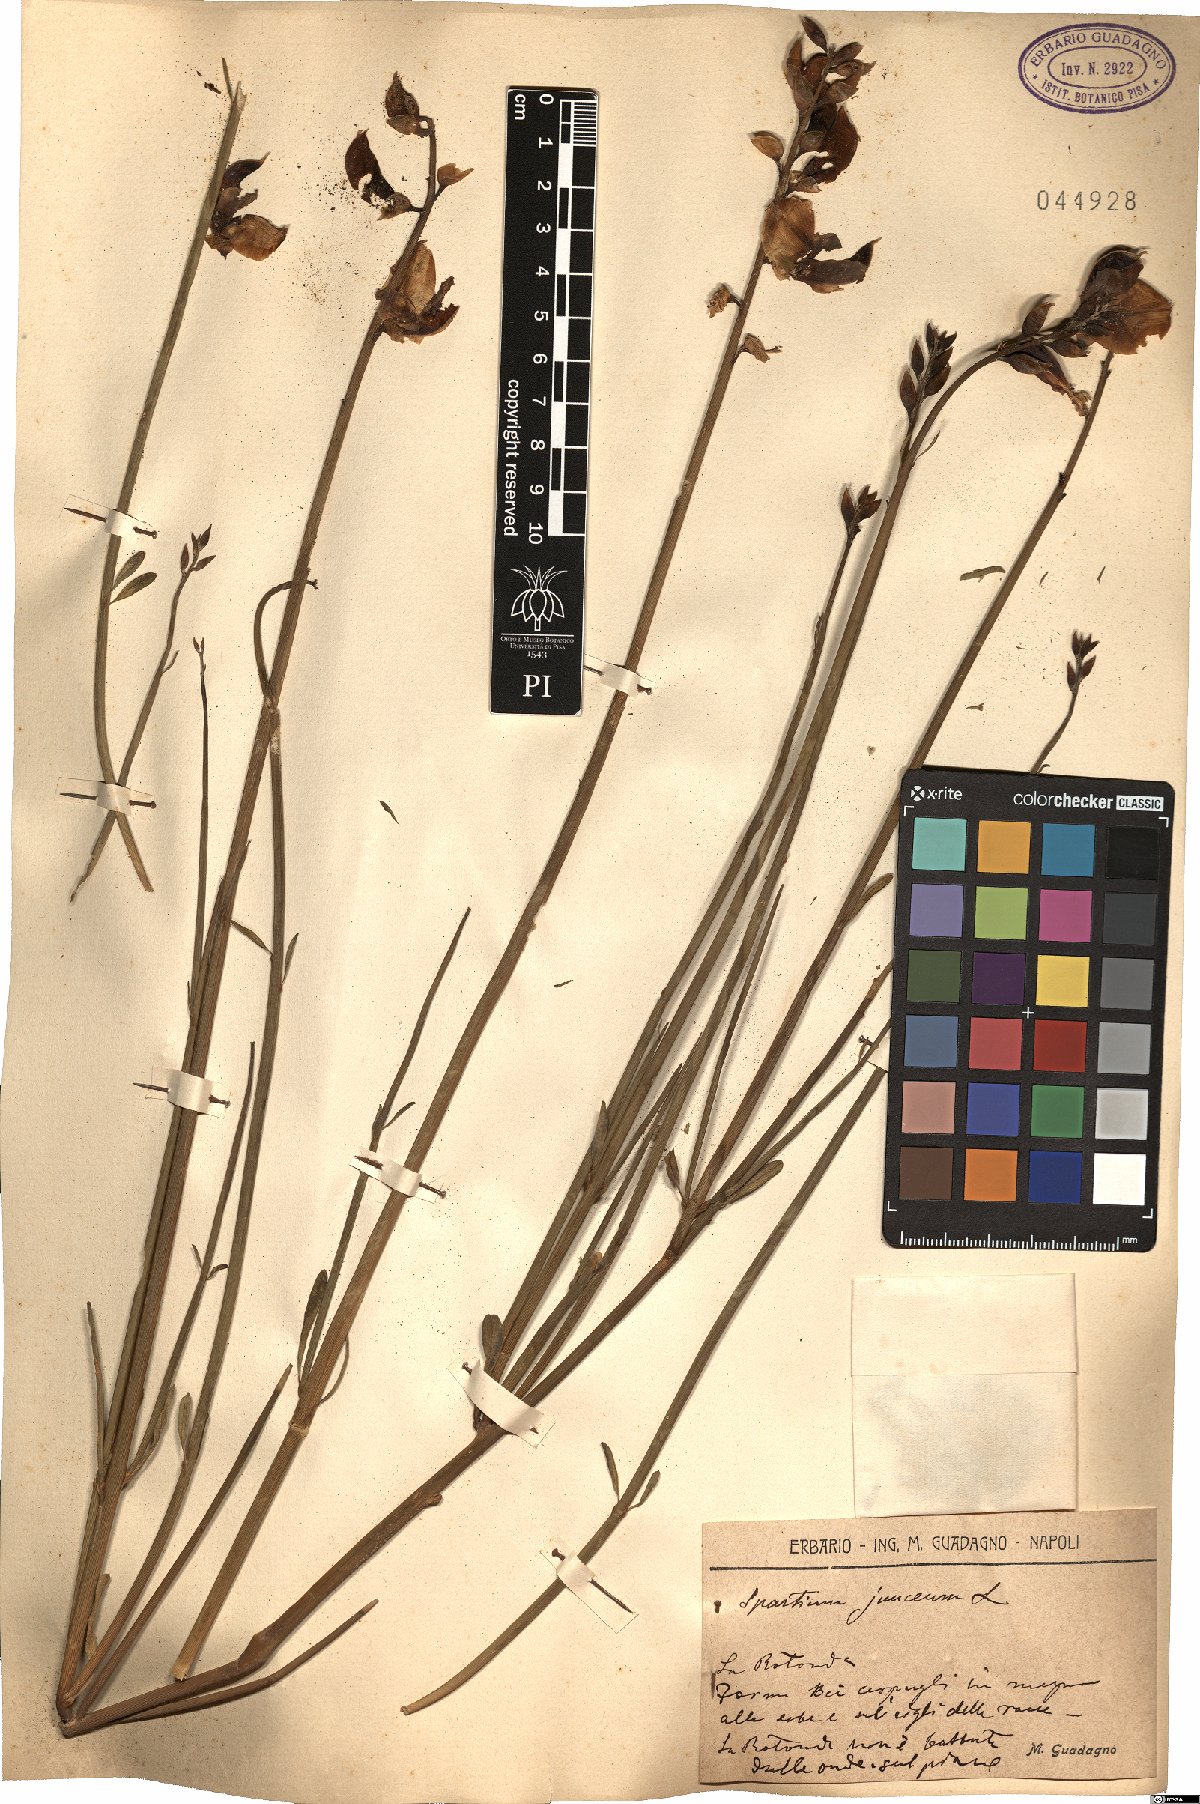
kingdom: Plantae
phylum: Tracheophyta
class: Magnoliopsida
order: Fabales
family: Fabaceae
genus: Spartium
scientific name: Spartium junceum
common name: Spanish broom
